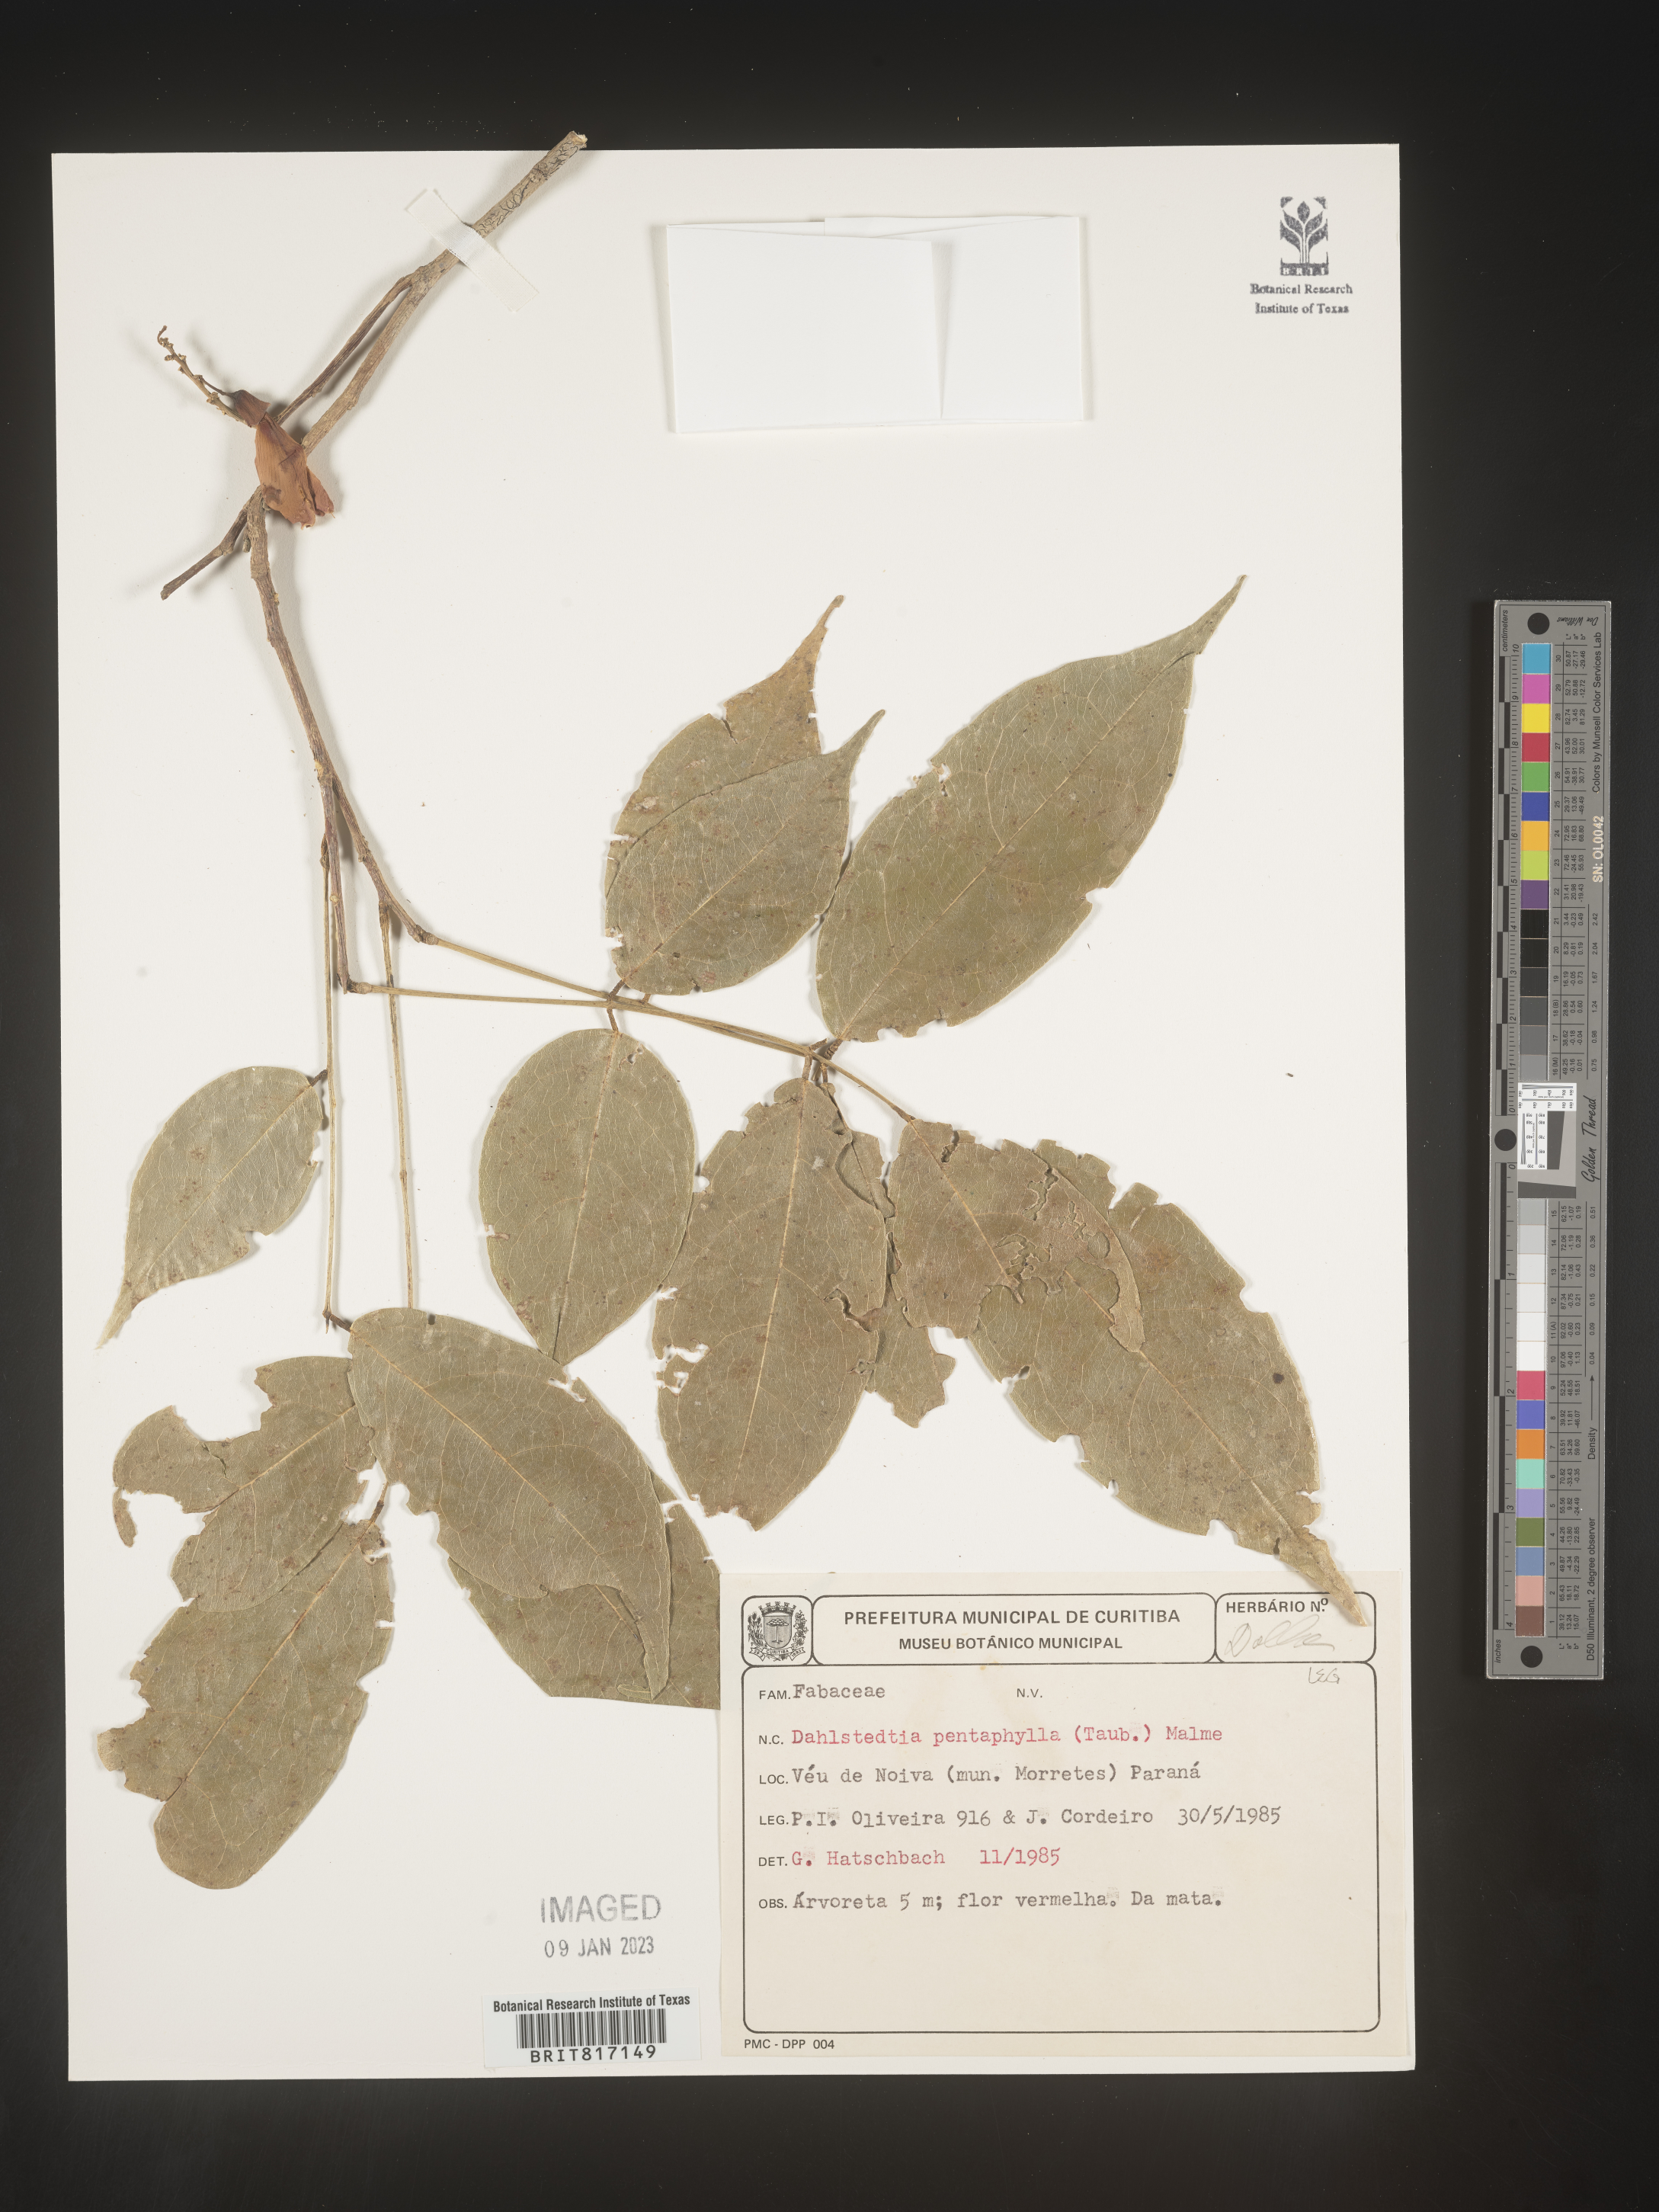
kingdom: Plantae
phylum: Tracheophyta
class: Magnoliopsida
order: Fabales
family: Fabaceae
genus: Dahlstedtia
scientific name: Dahlstedtia
